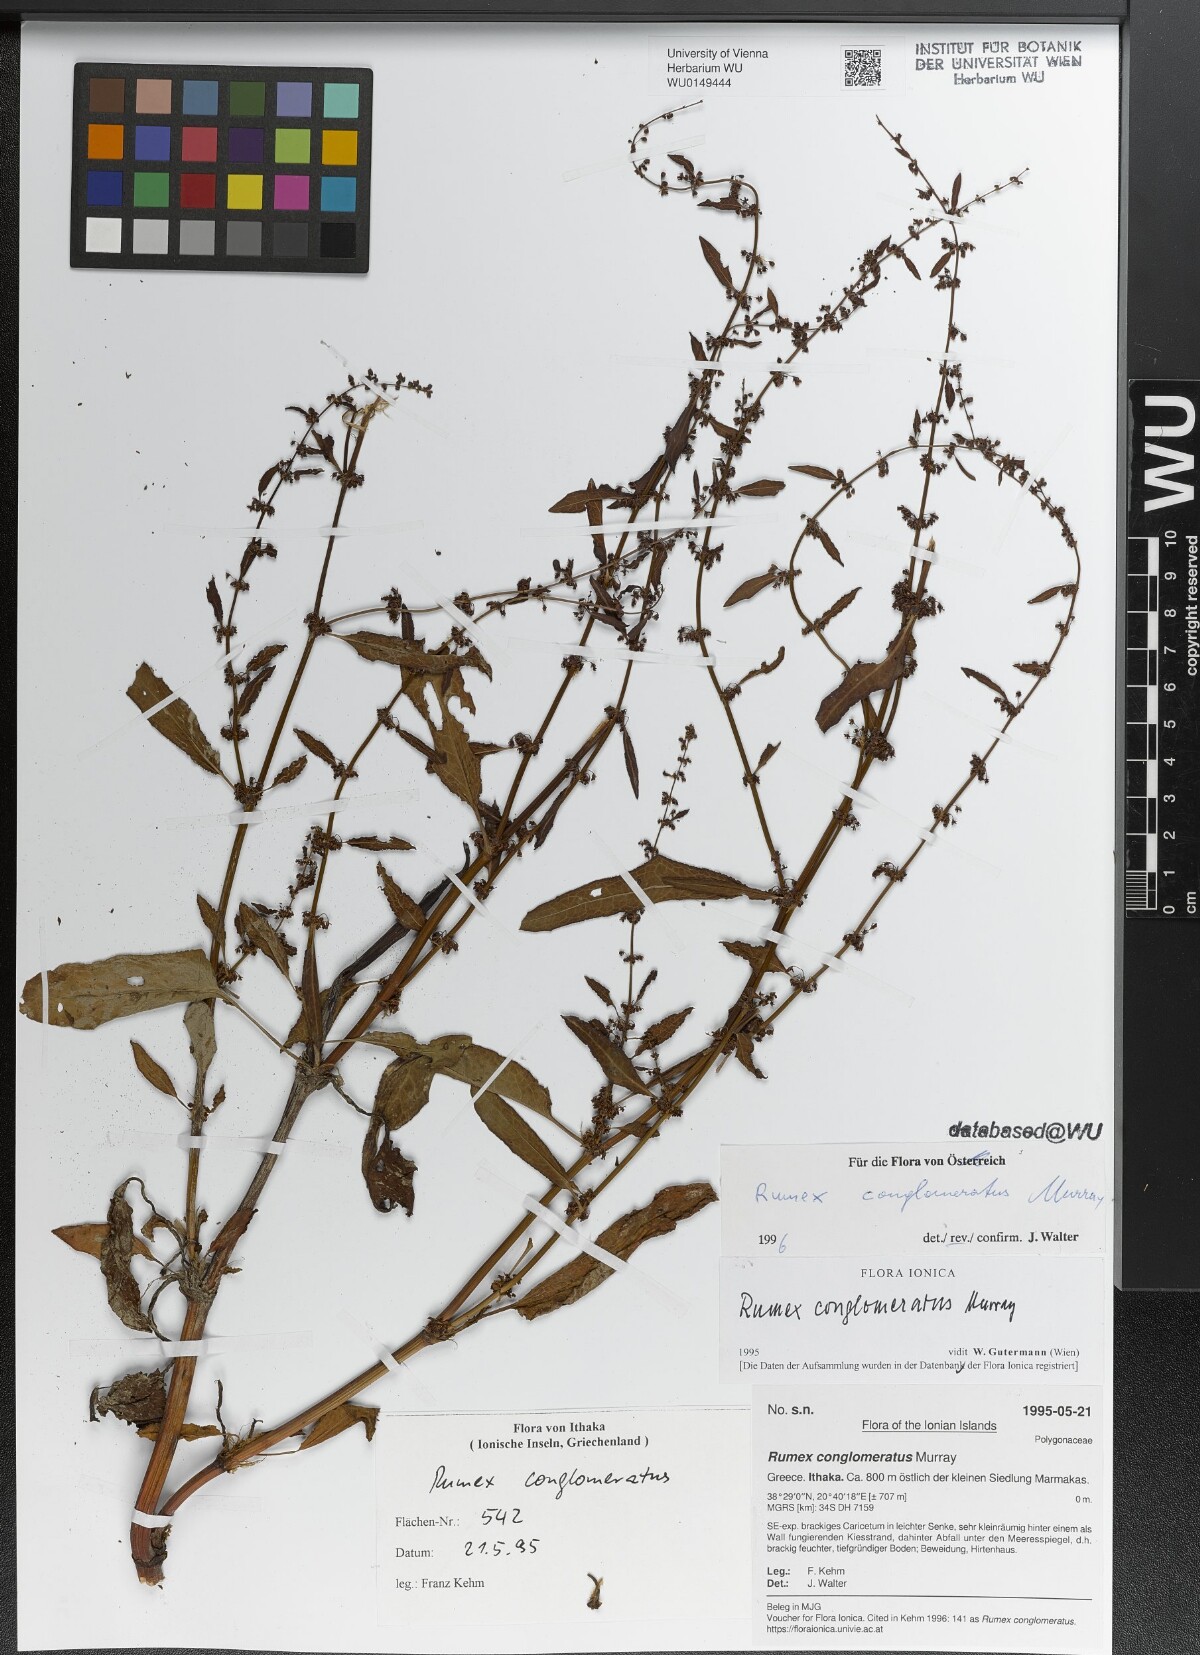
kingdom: Plantae
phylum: Tracheophyta
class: Magnoliopsida
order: Caryophyllales
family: Polygonaceae
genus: Rumex
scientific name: Rumex conglomeratus
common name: Clustered dock
